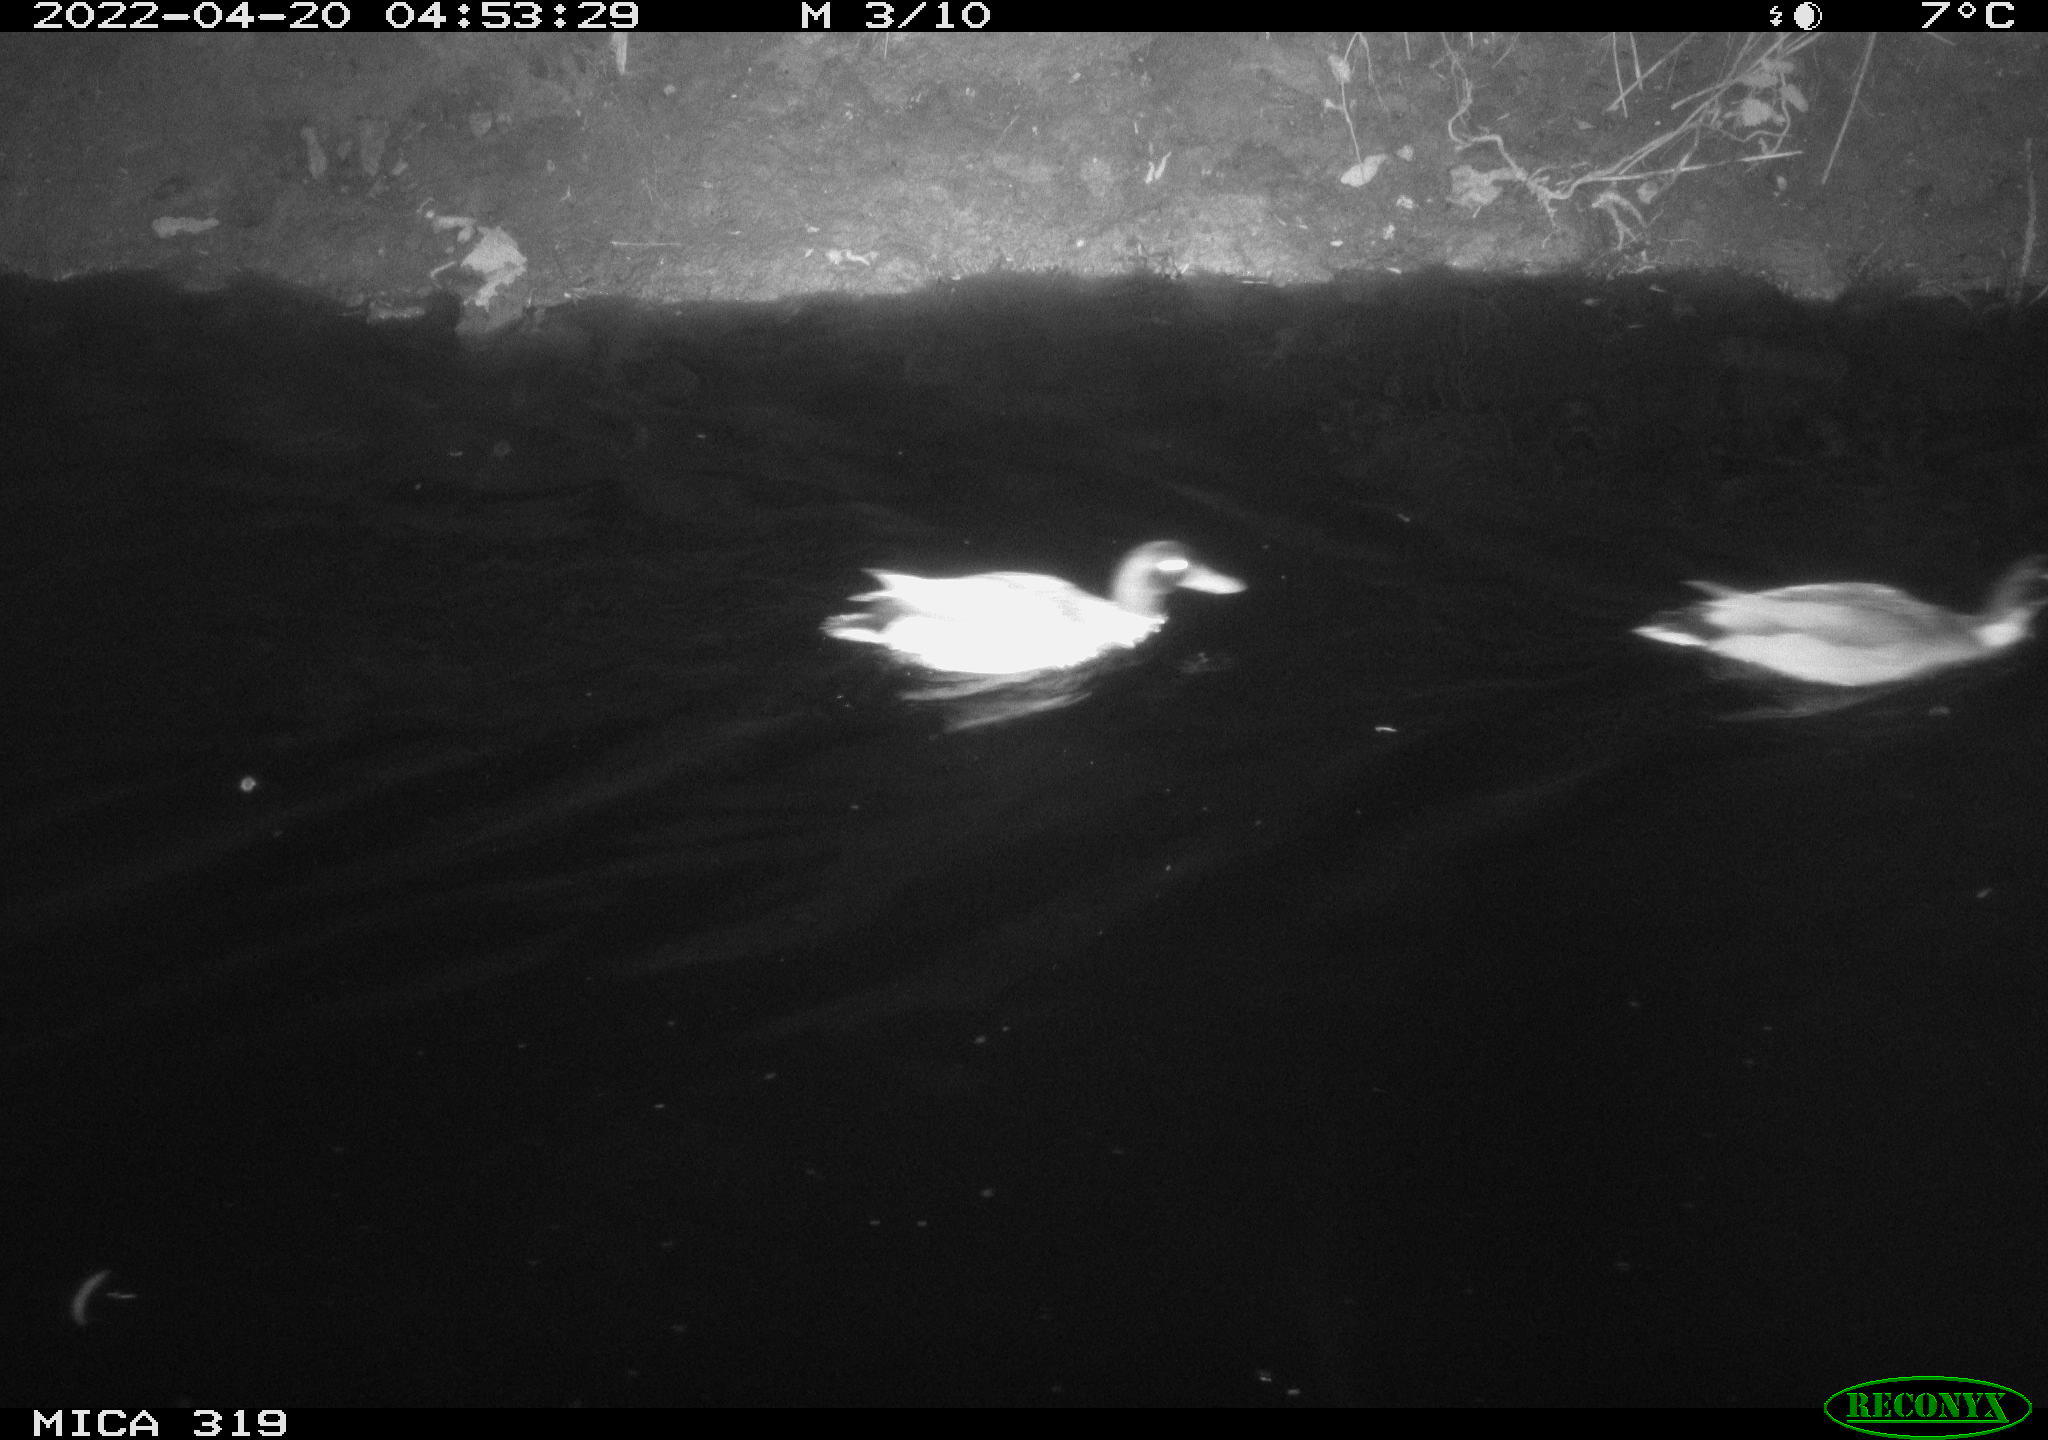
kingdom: Animalia
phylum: Chordata
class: Aves
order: Anseriformes
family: Anatidae
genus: Anas
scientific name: Anas platyrhynchos
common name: Mallard
